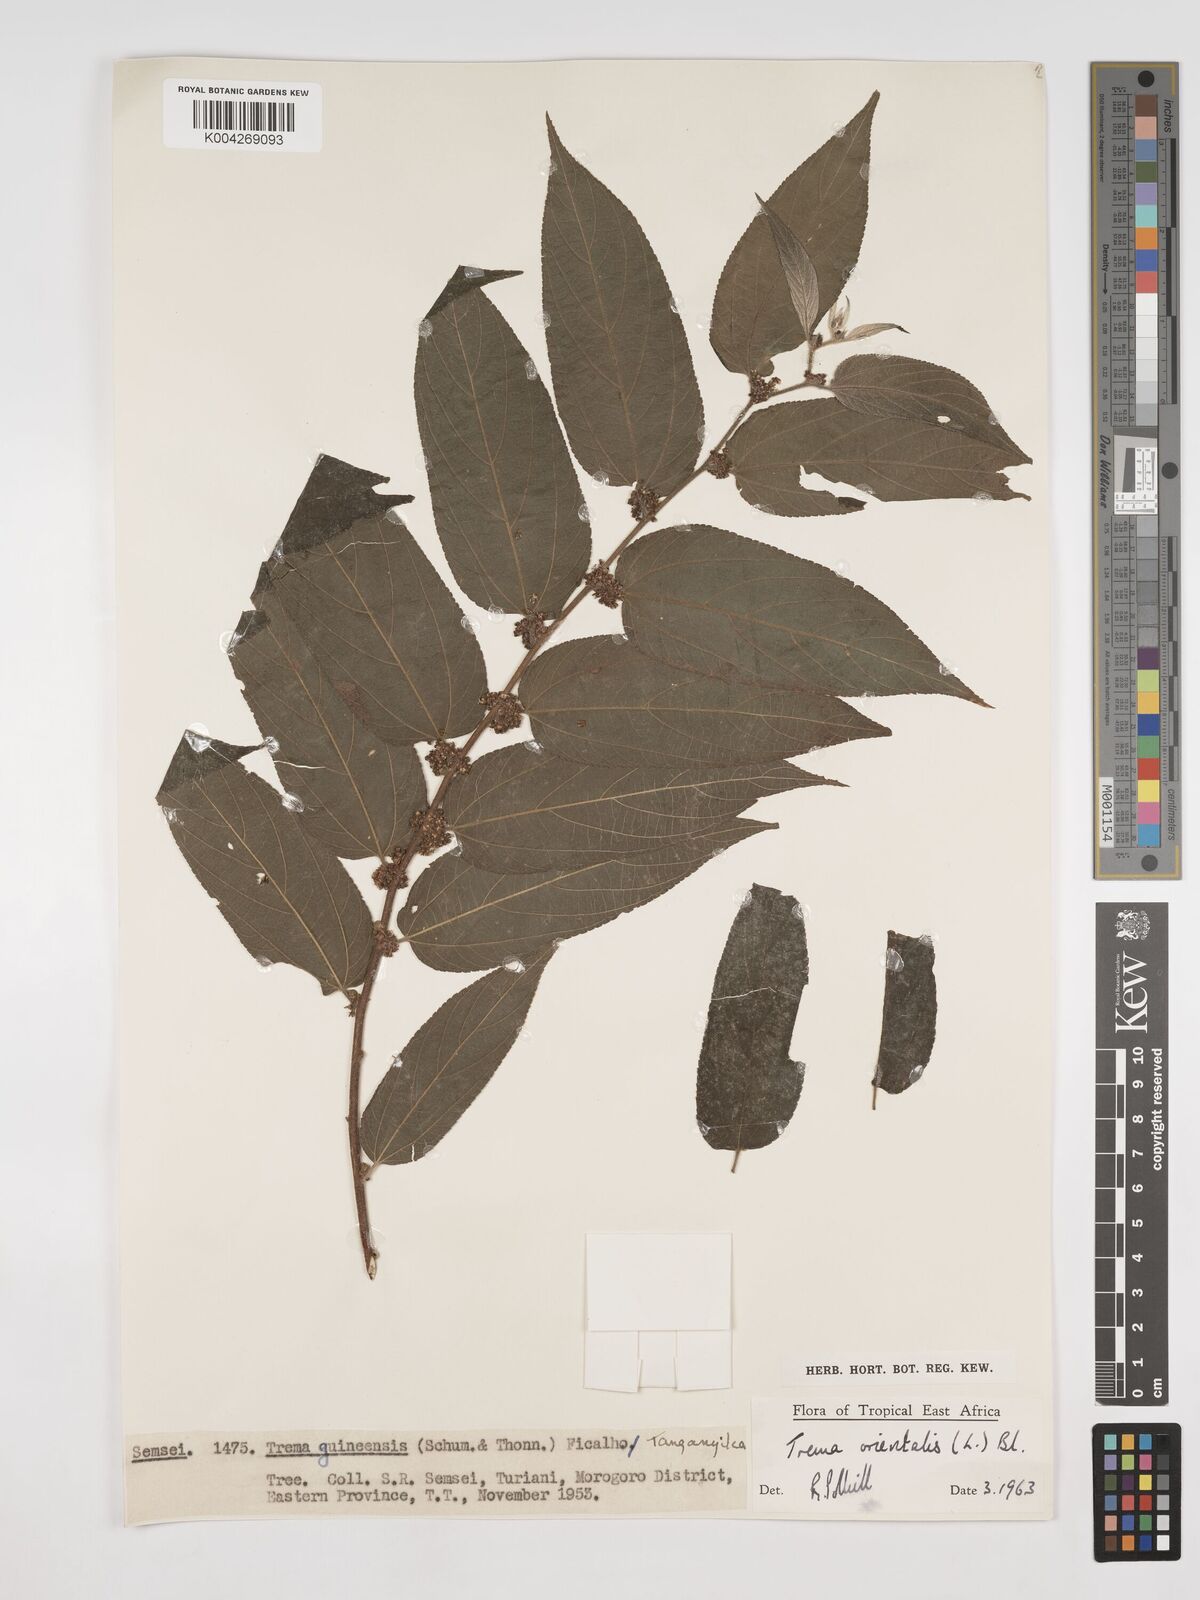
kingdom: Plantae
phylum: Tracheophyta
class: Magnoliopsida
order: Rosales
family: Cannabaceae
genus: Trema
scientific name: Trema orientale
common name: Indian charcoal tree
